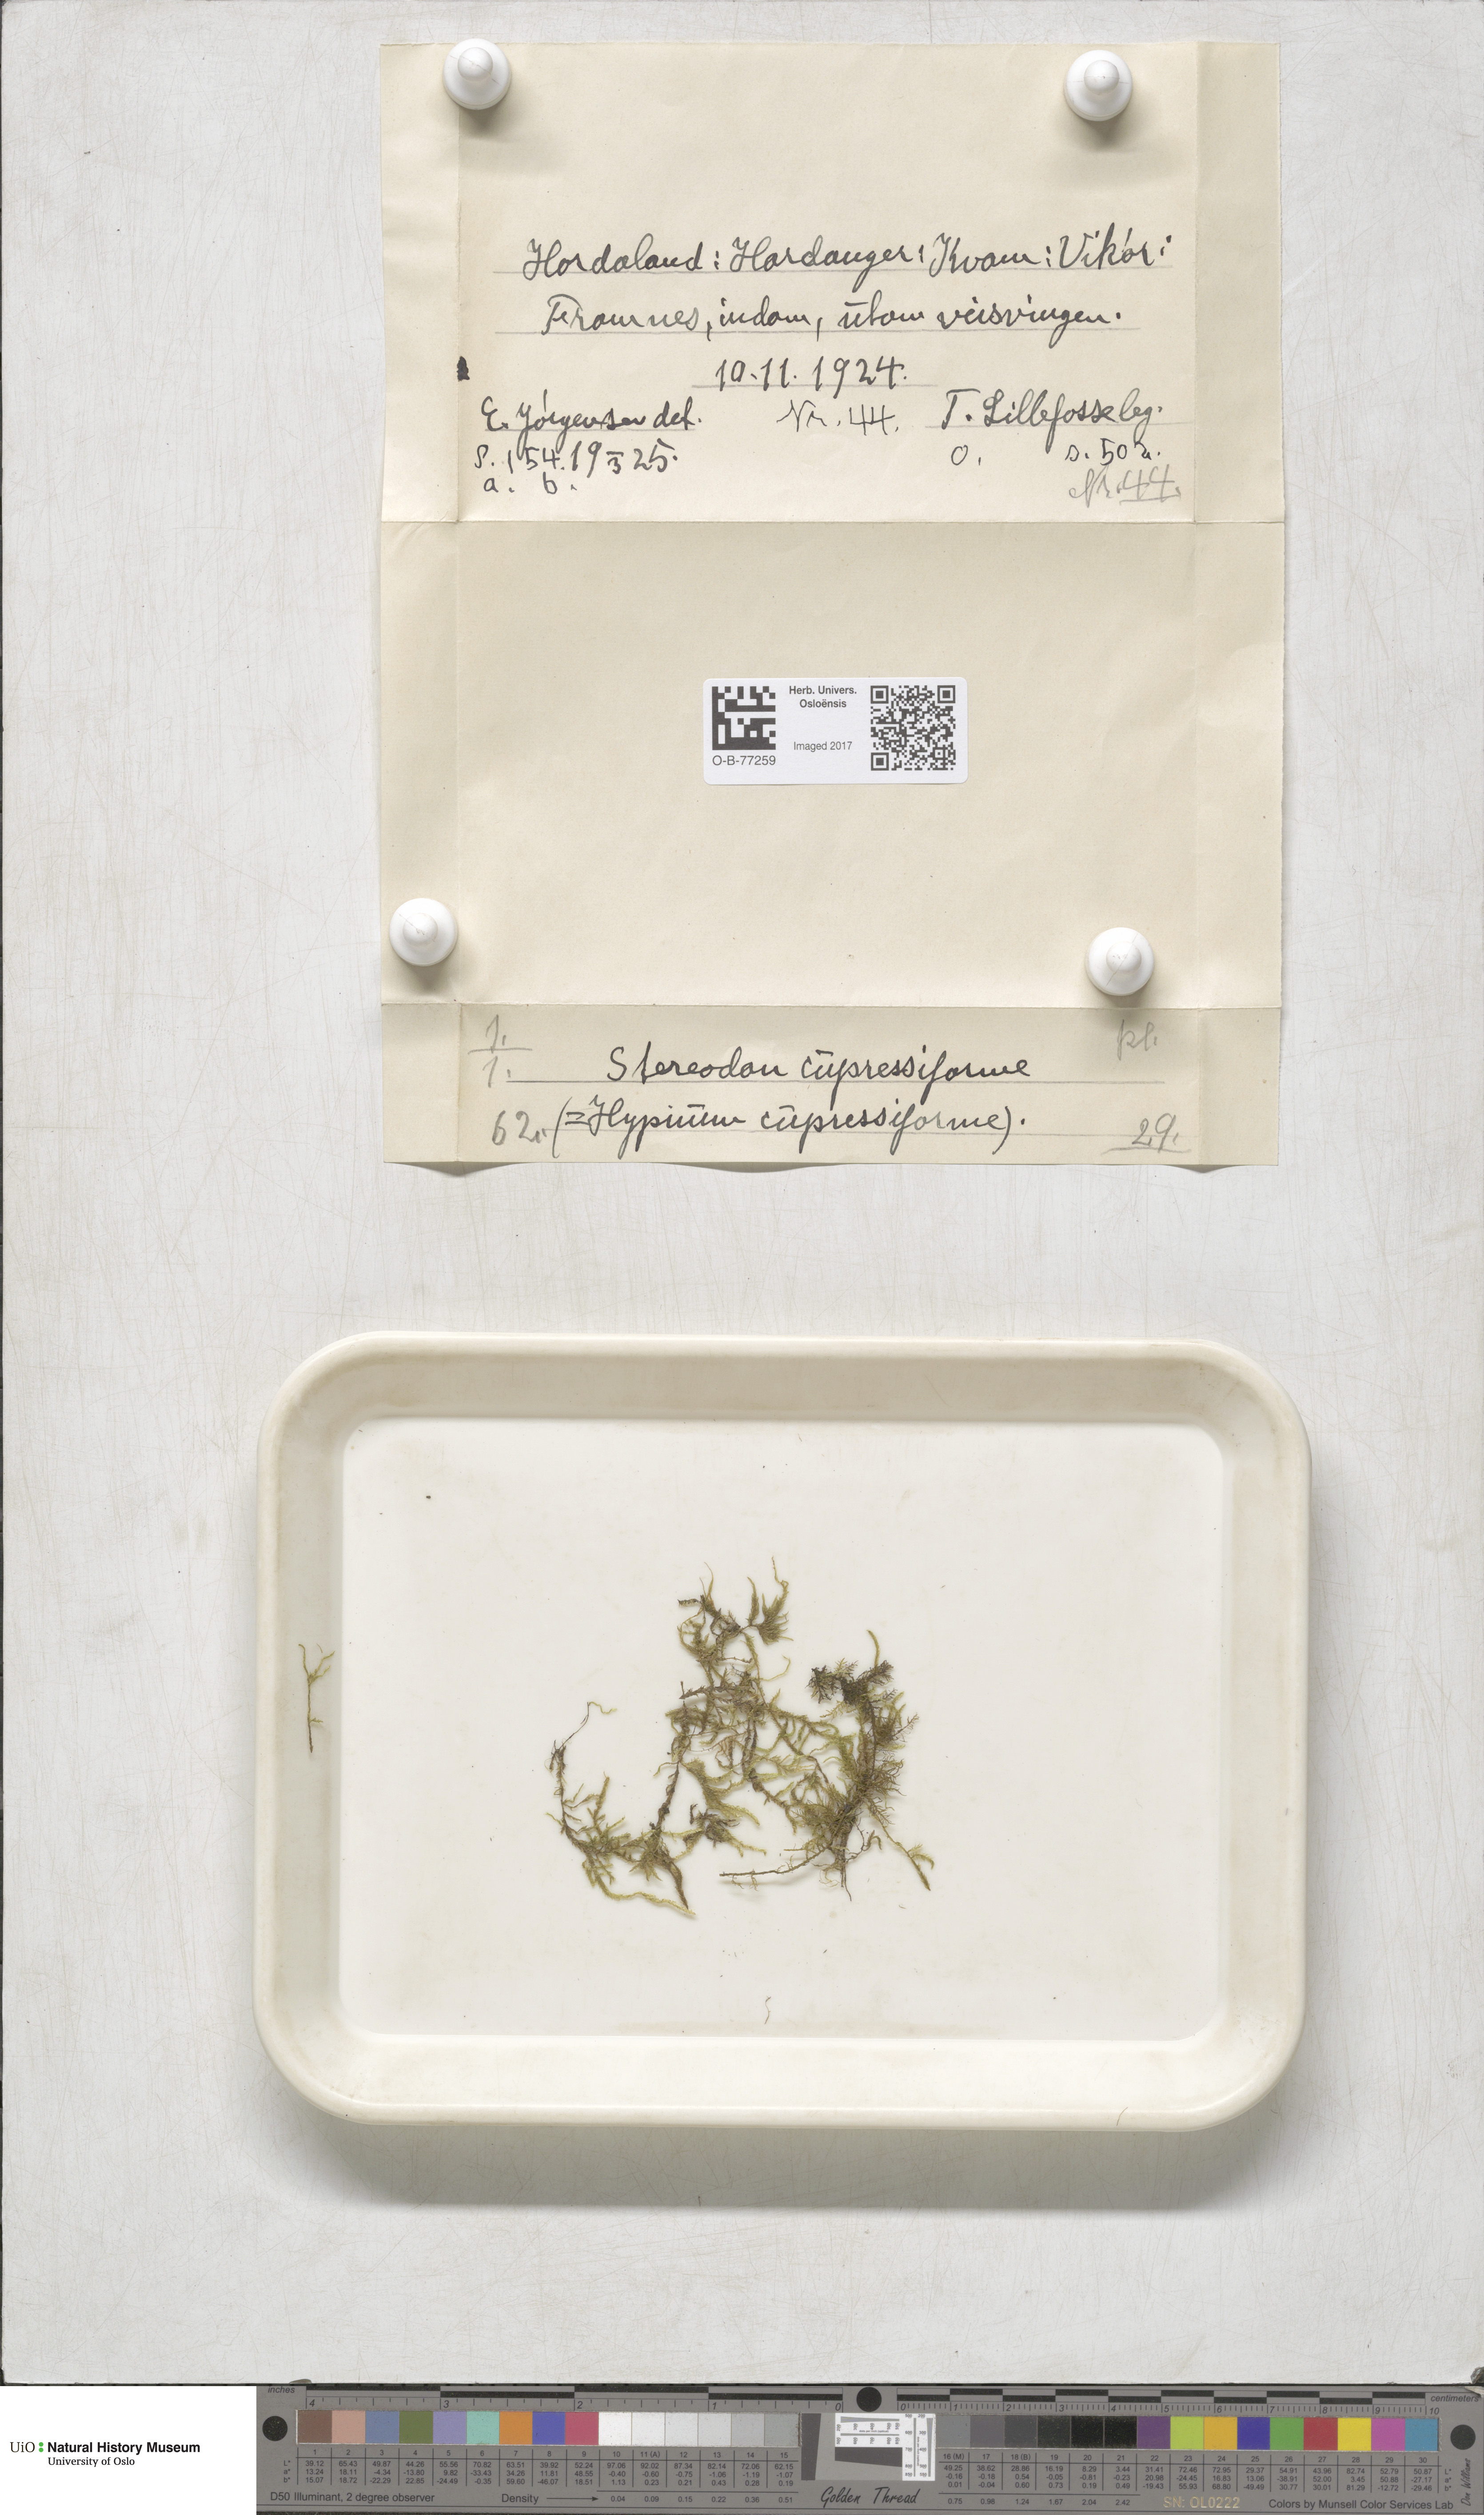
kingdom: Plantae
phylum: Bryophyta
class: Bryopsida
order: Hypnales
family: Hypnaceae
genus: Hypnum
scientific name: Hypnum cupressiforme
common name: Cypress-leaved plait-moss
